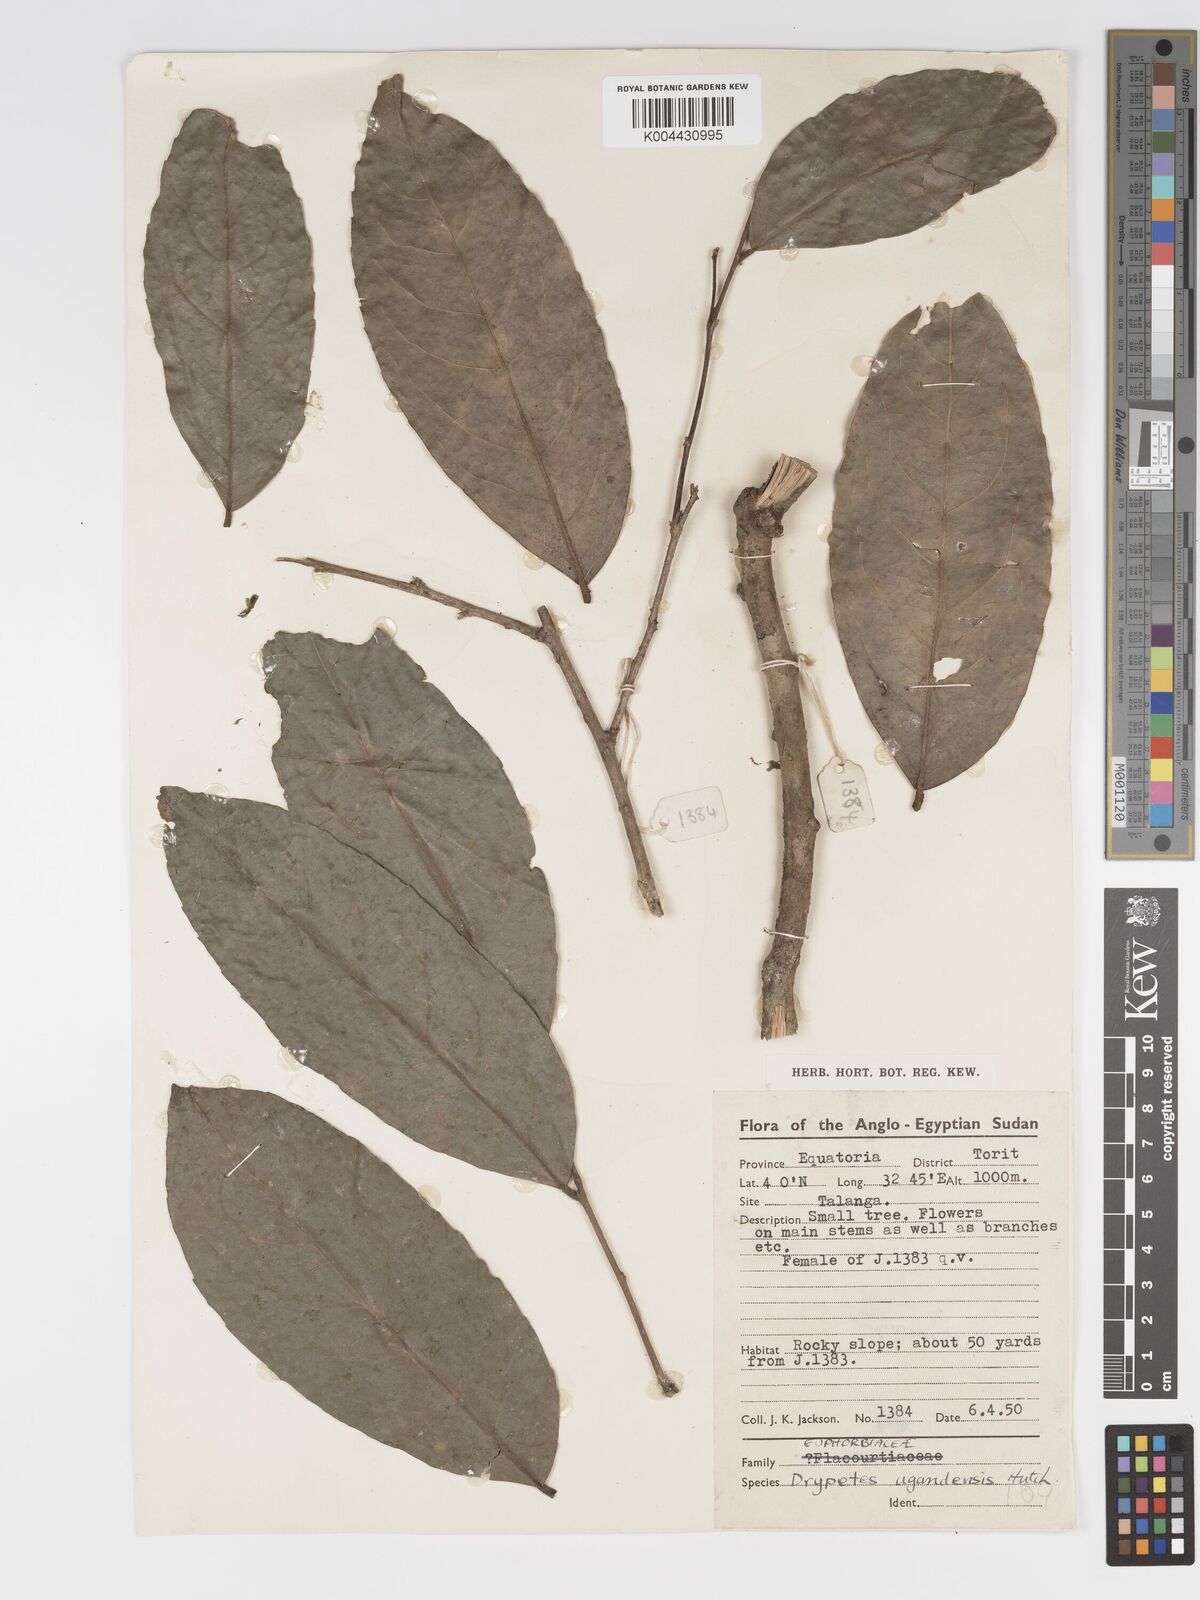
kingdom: Plantae
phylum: Tracheophyta
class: Magnoliopsida
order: Malpighiales
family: Putranjivaceae
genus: Drypetes
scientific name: Drypetes ugandensis
